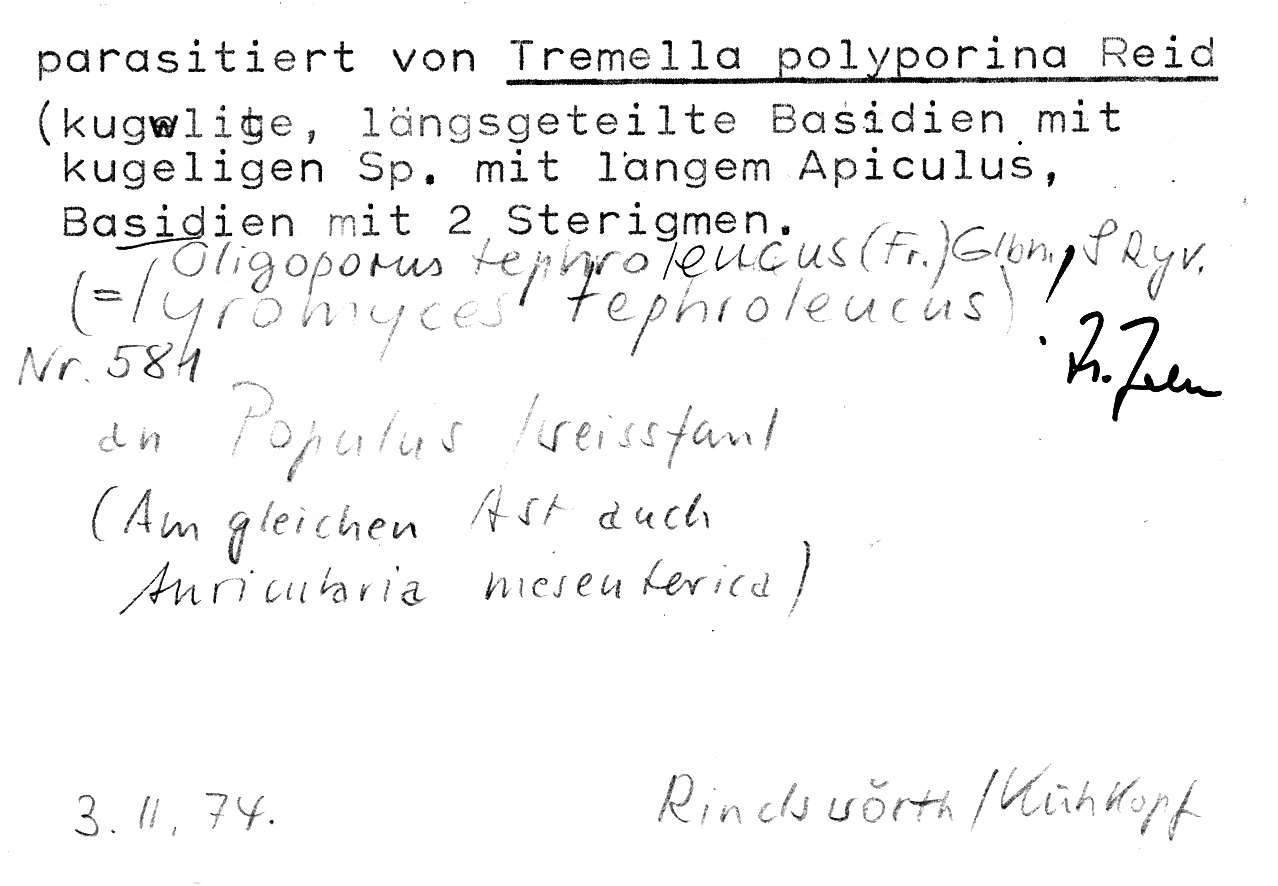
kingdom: Fungi
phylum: Basidiomycota
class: Agaricomycetes
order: Polyporales
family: Dacryobolaceae
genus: Postia
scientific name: Postia tephroleuca
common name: Greyling bracket
